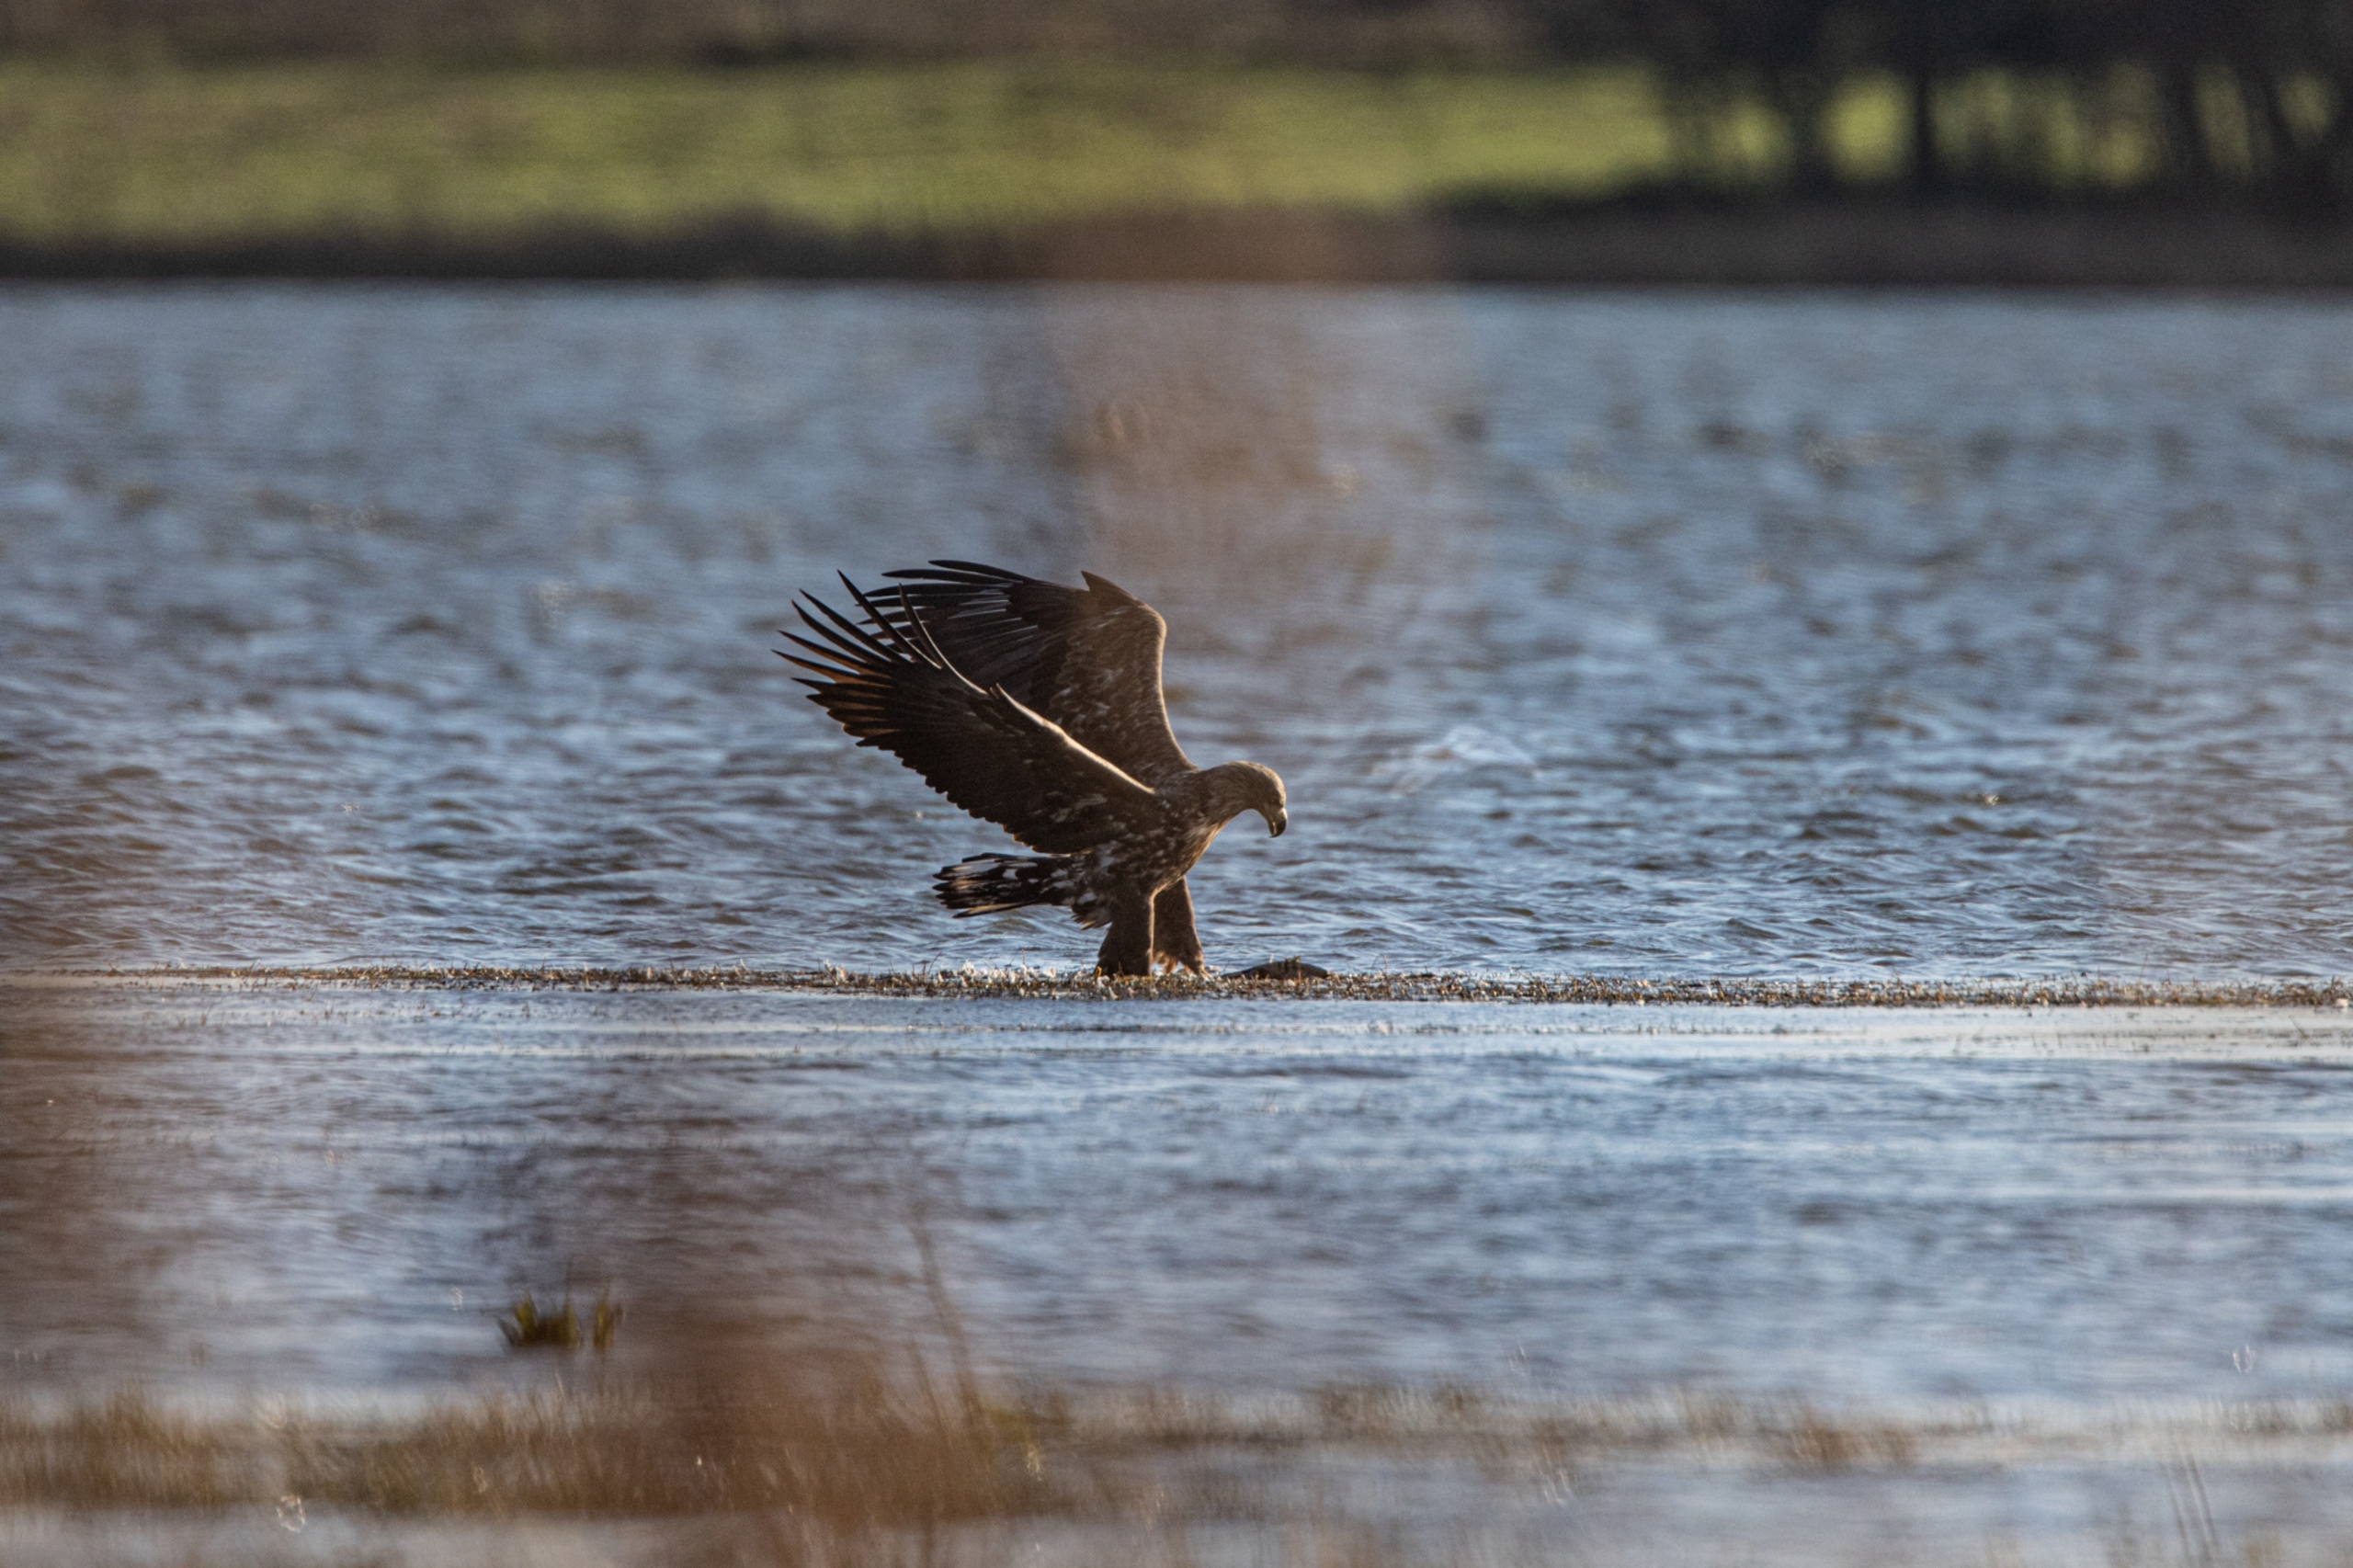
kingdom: Animalia
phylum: Chordata
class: Aves
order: Accipitriformes
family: Accipitridae
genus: Haliaeetus
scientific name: Haliaeetus albicilla
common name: Havørn
